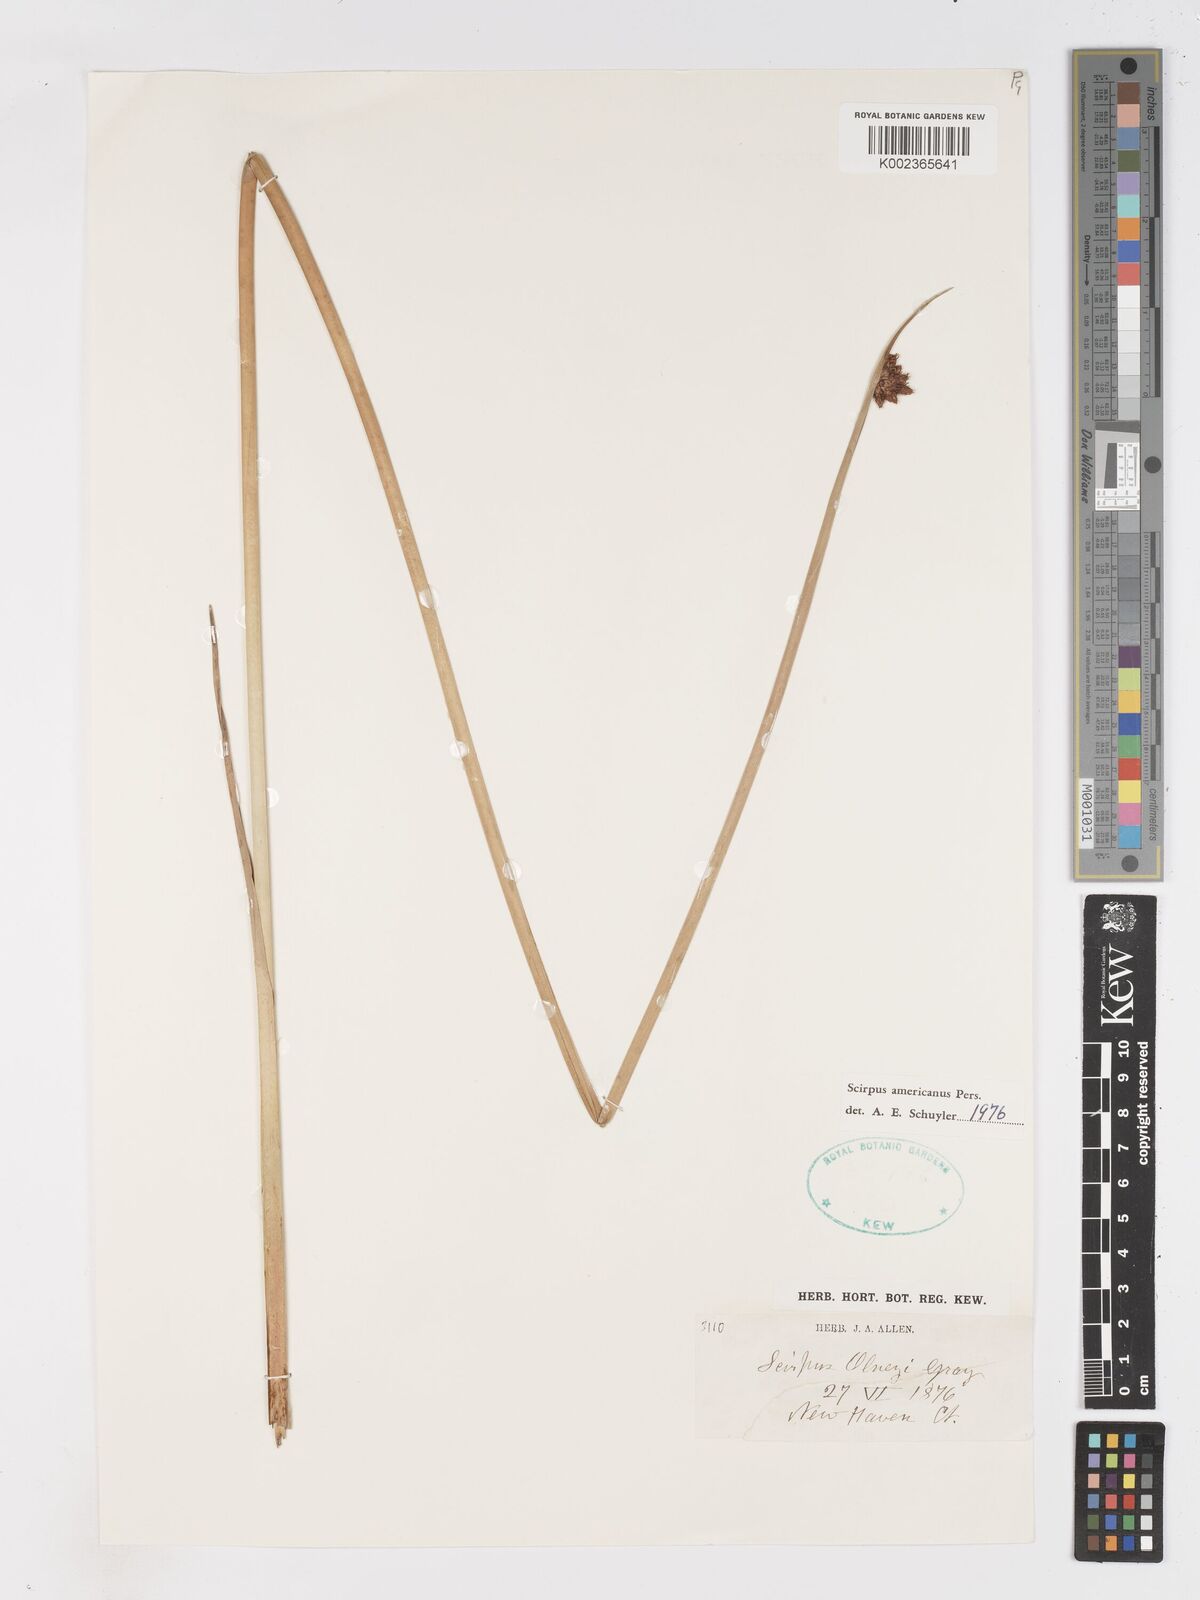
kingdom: Plantae
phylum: Tracheophyta
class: Liliopsida
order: Poales
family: Cyperaceae
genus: Schoenoplectus
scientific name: Schoenoplectus americanus
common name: American three-square bulrush
